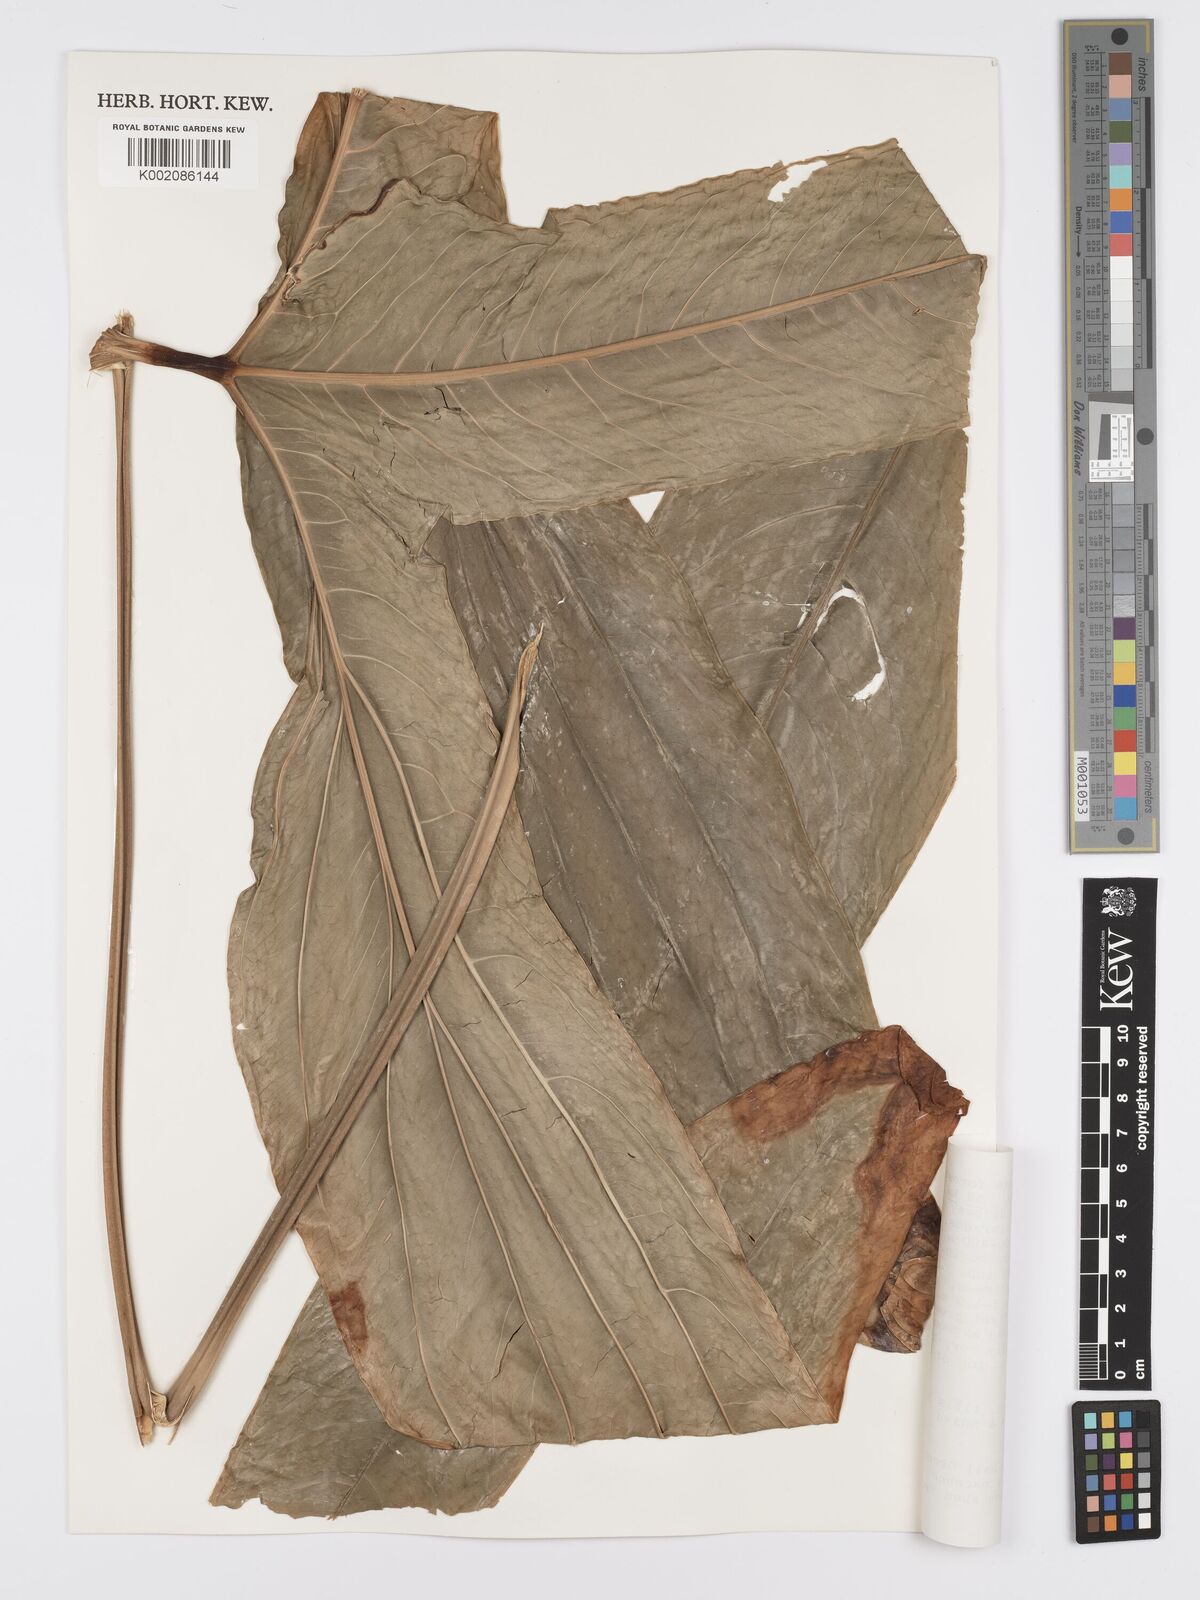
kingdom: Plantae
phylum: Tracheophyta
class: Liliopsida
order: Alismatales
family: Araceae
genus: Anthurium
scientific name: Anthurium furcatum
